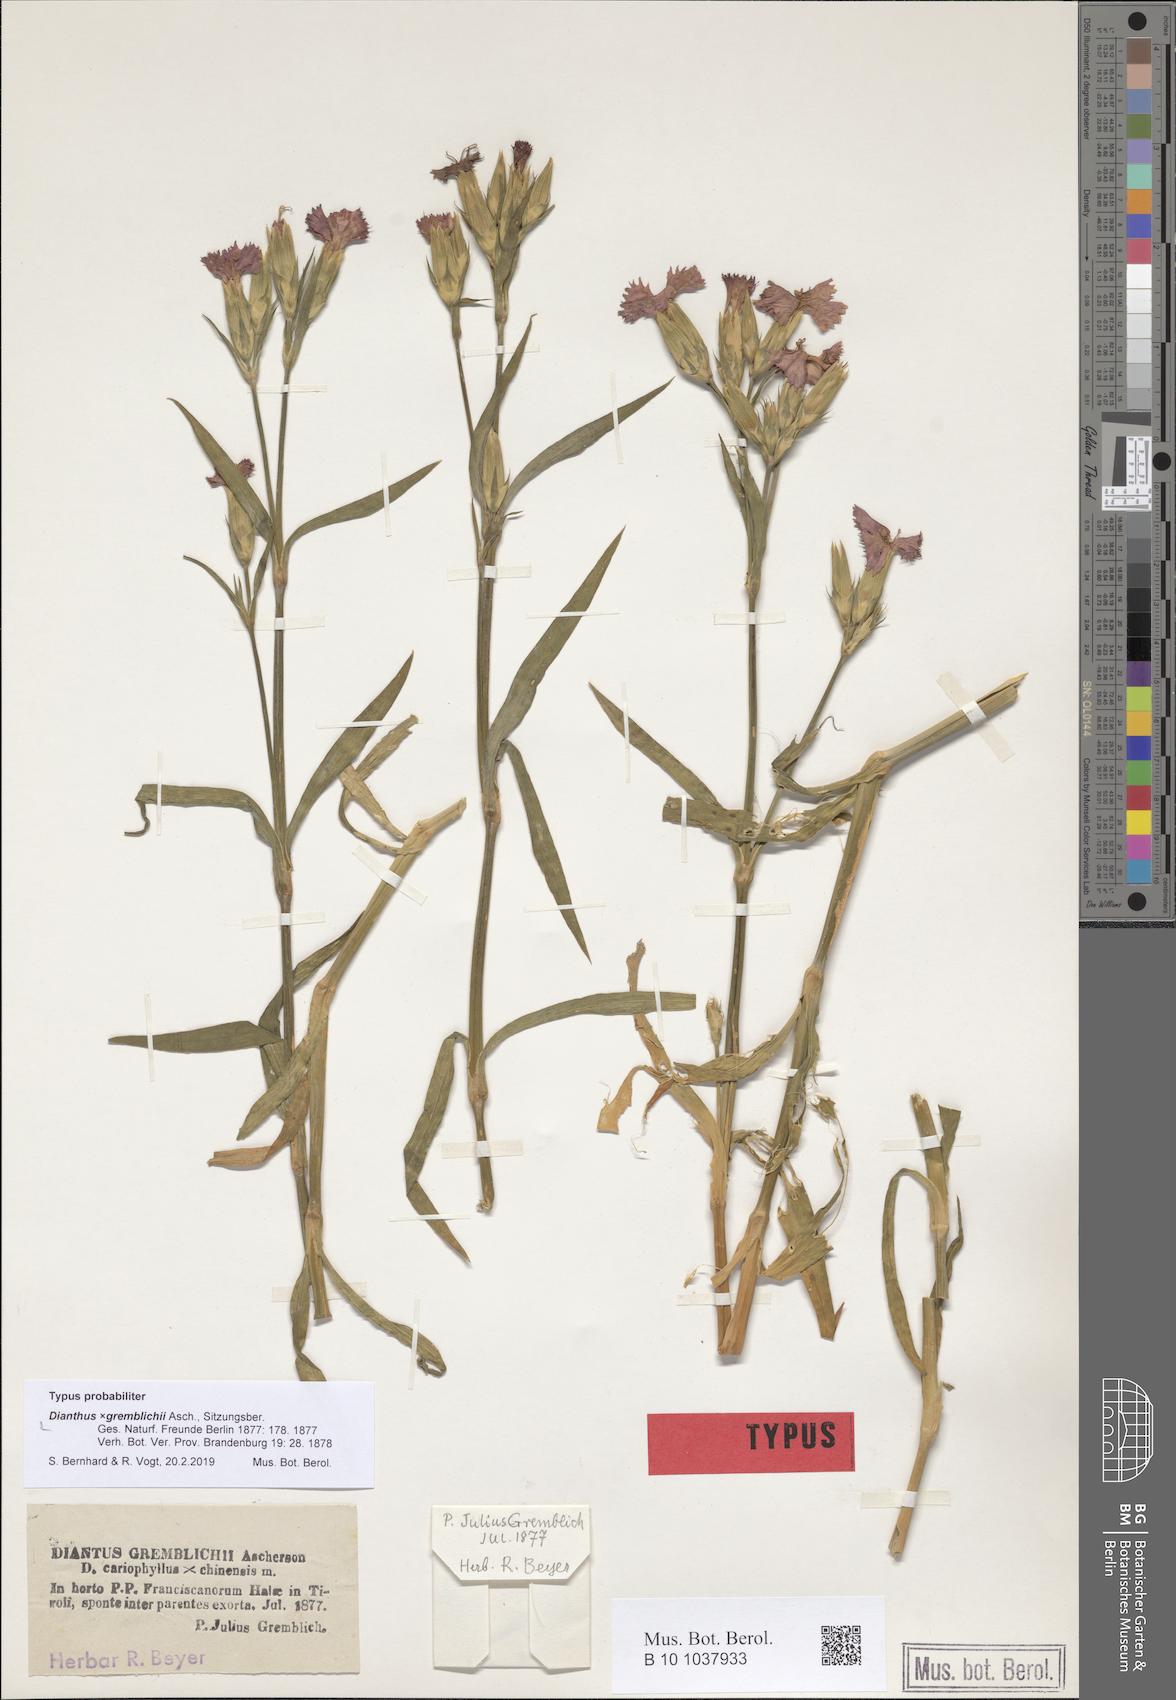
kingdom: Plantae
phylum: Tracheophyta
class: Magnoliopsida
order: Caryophyllales
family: Caryophyllaceae
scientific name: Caryophyllaceae
